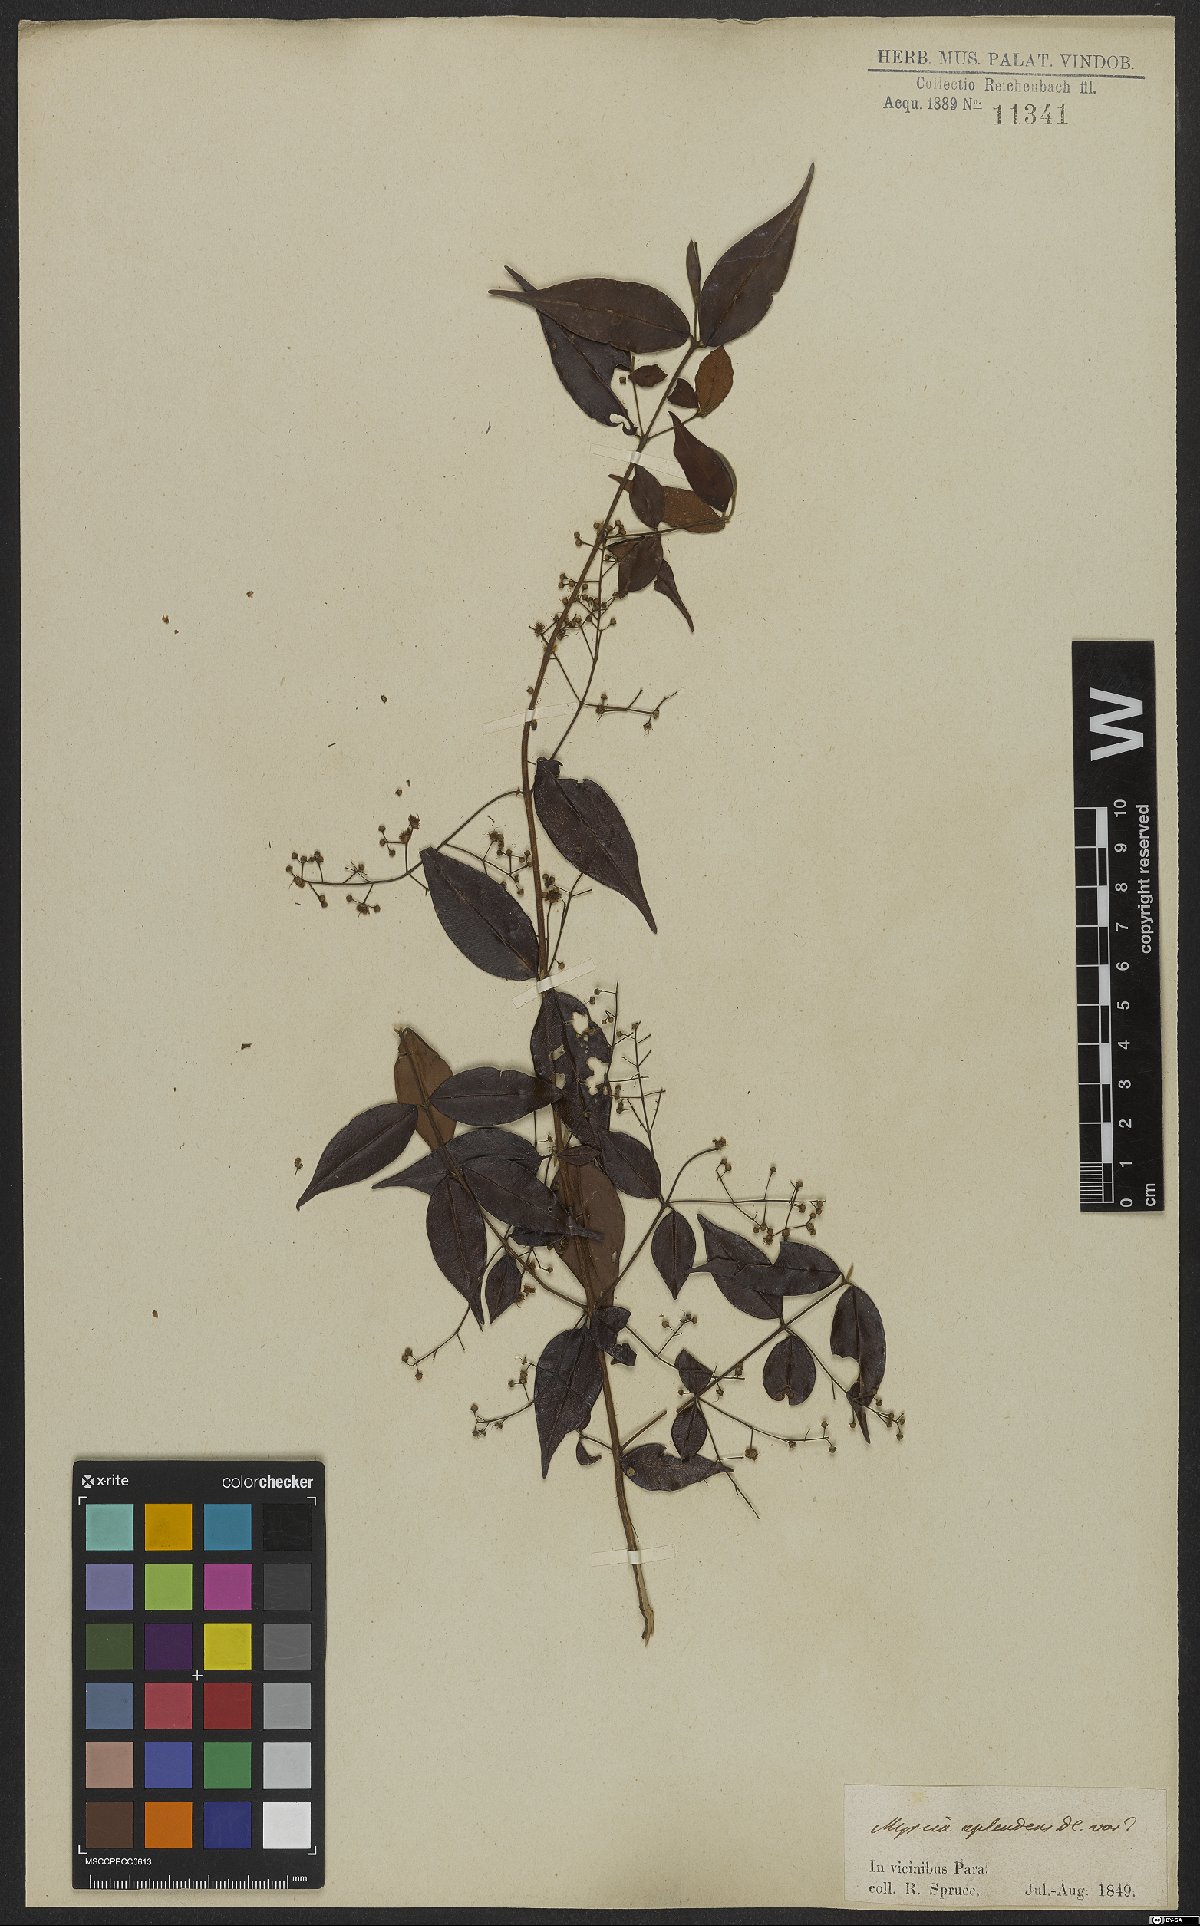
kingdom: Plantae
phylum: Tracheophyta
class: Magnoliopsida
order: Myrtales
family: Myrtaceae
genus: Myrcia
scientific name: Myrcia splendens
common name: Surinam cherry
